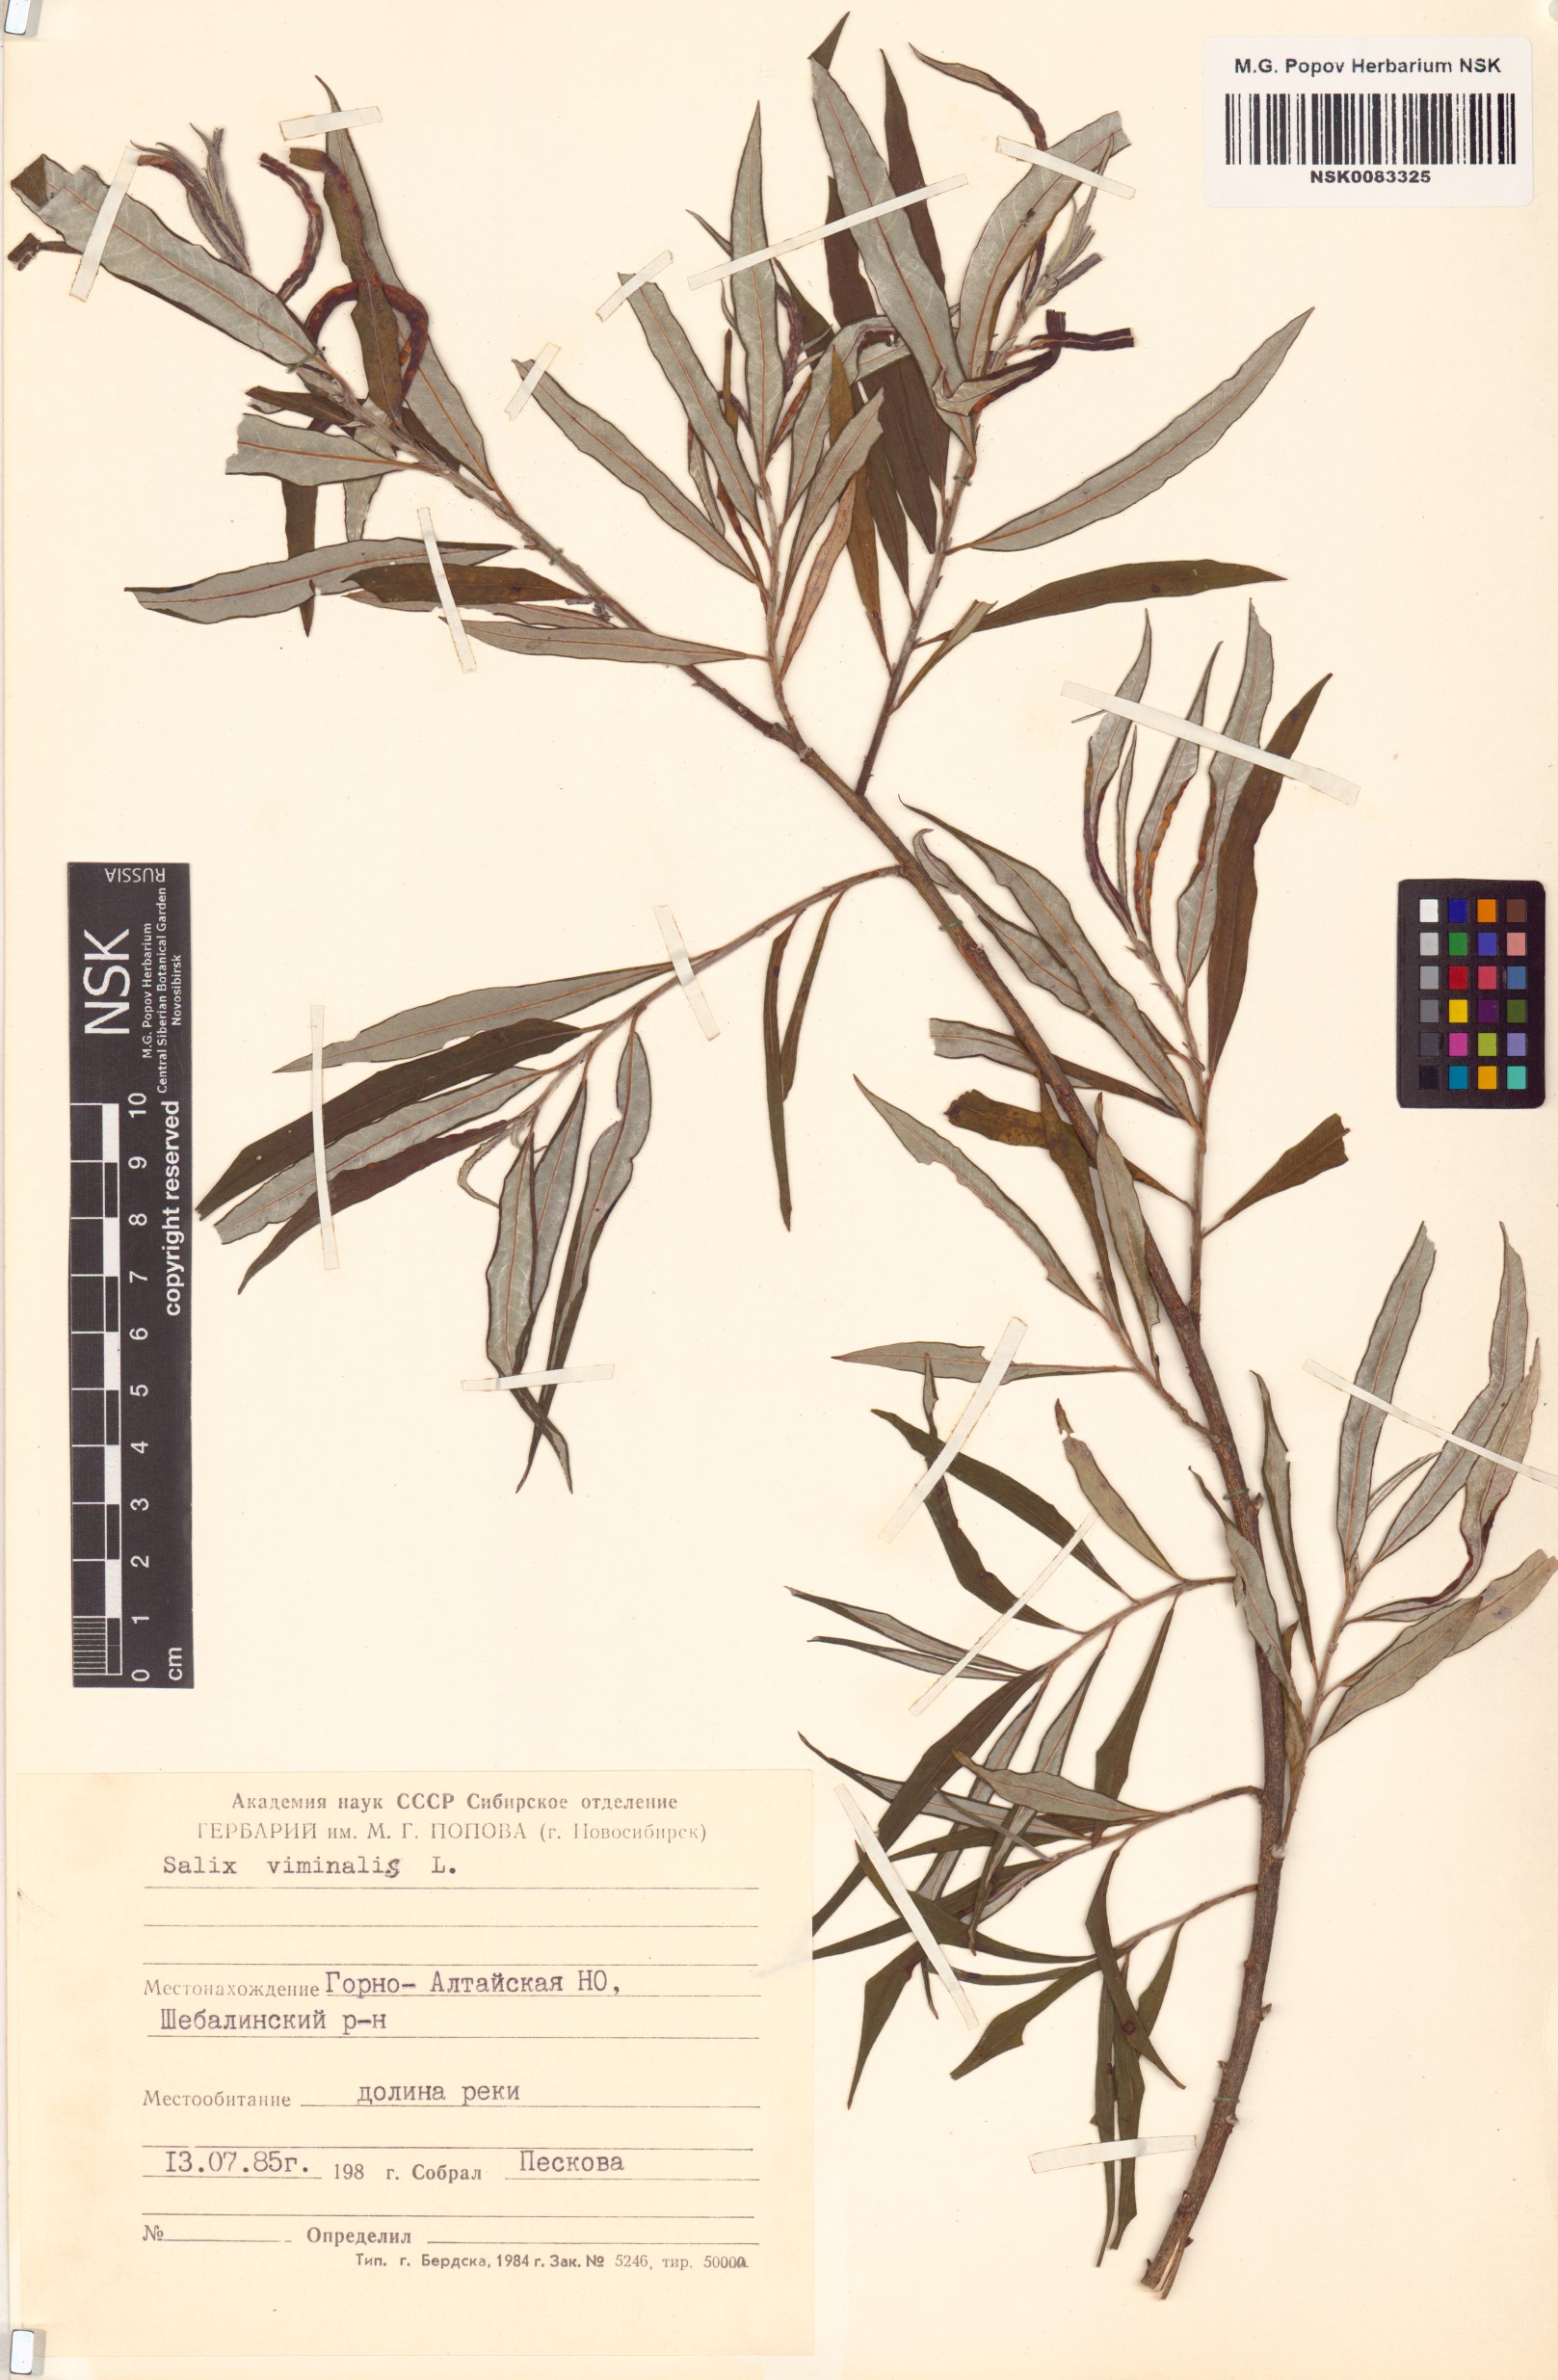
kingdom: Plantae
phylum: Tracheophyta
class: Magnoliopsida
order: Malpighiales
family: Salicaceae
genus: Salix
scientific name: Salix viminalis
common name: Osier
